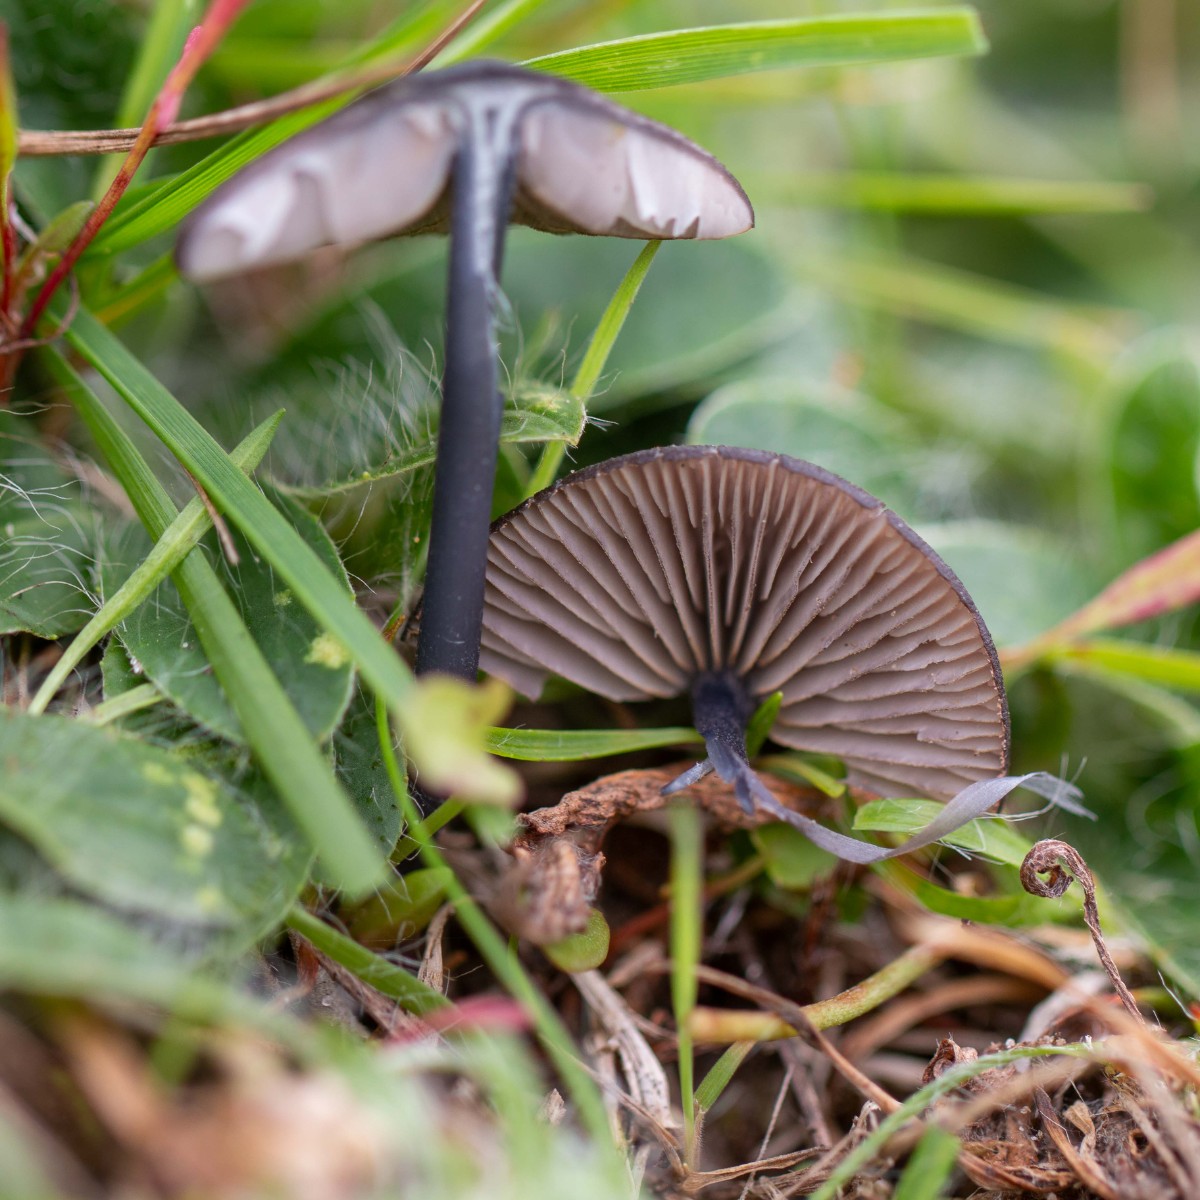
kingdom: Fungi
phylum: Basidiomycota
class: Agaricomycetes
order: Agaricales
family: Entolomataceae
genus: Entoloma
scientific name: Entoloma
